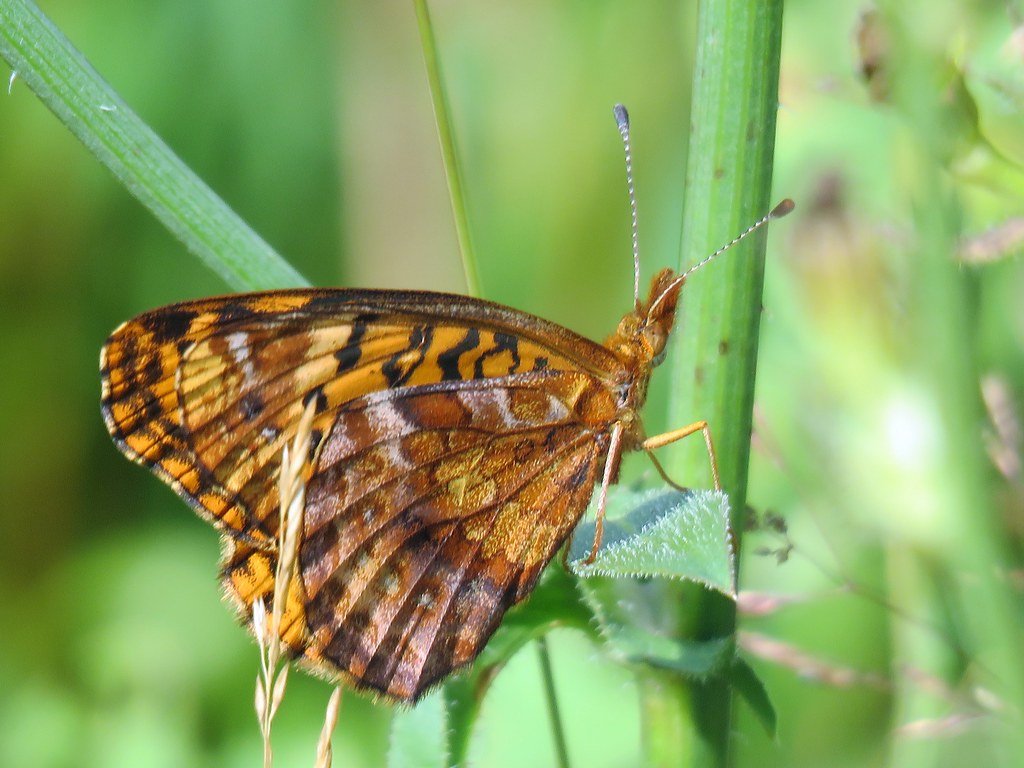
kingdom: Animalia
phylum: Arthropoda
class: Insecta
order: Lepidoptera
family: Nymphalidae
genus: Clossiana
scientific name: Clossiana toddi
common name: Meadow Fritillary
